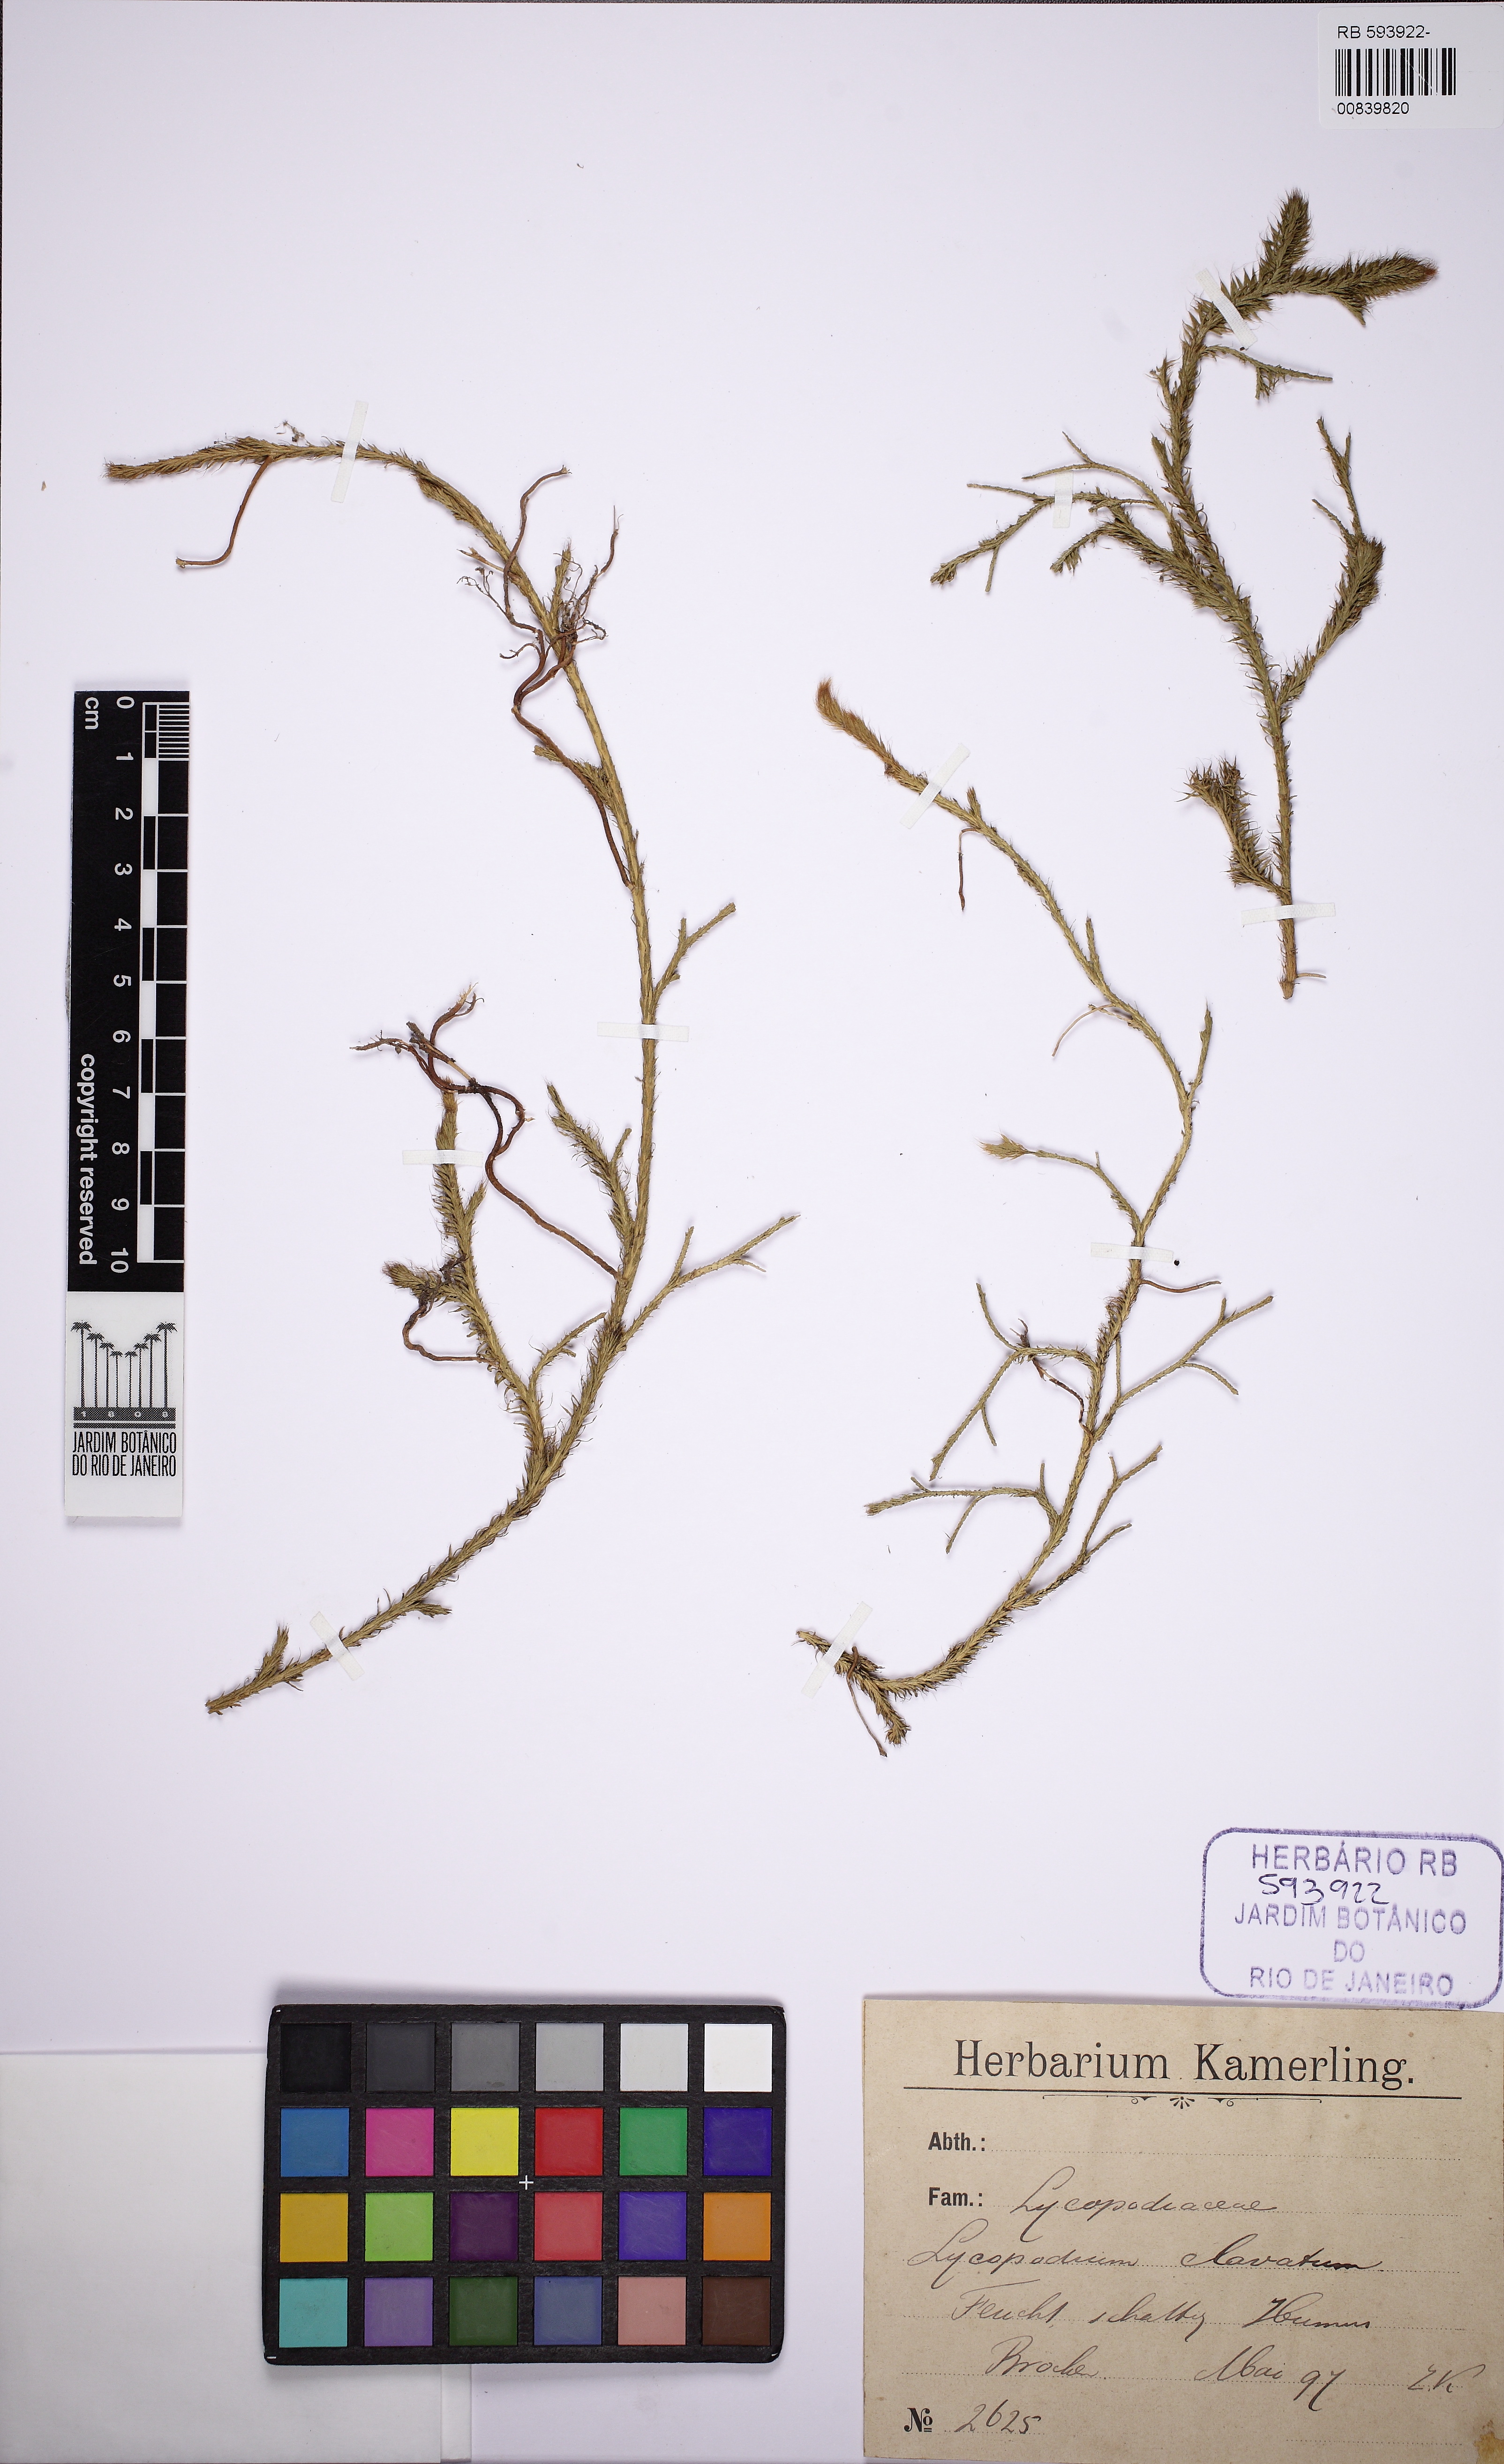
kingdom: Plantae
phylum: Tracheophyta
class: Lycopodiopsida
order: Lycopodiales
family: Lycopodiaceae
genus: Lycopodium
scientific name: Lycopodium clavatum
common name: Stag's-horn clubmoss
